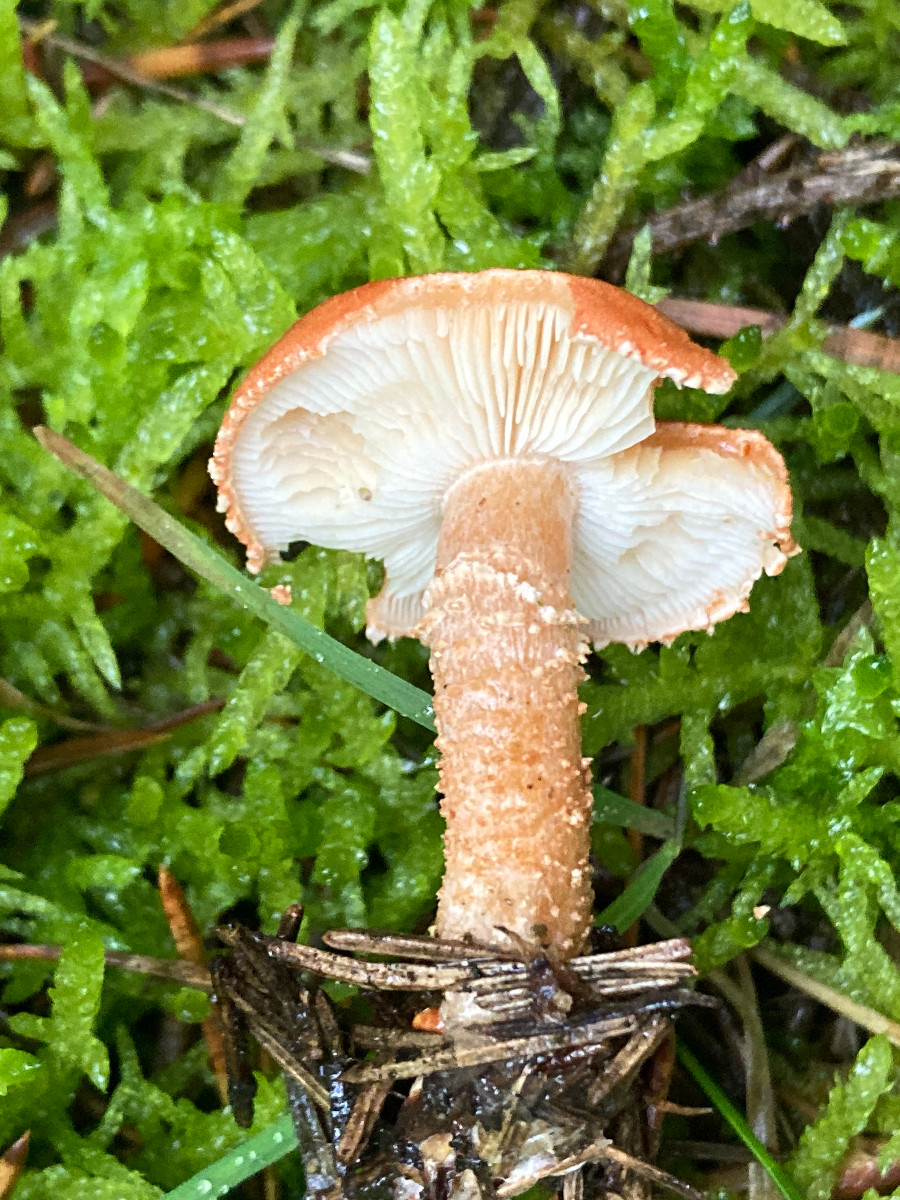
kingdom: Fungi
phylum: Basidiomycota
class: Agaricomycetes
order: Agaricales
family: Agaricaceae
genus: Cystodermella
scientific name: Cystodermella cinnabarina
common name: cinnober-grynhat
